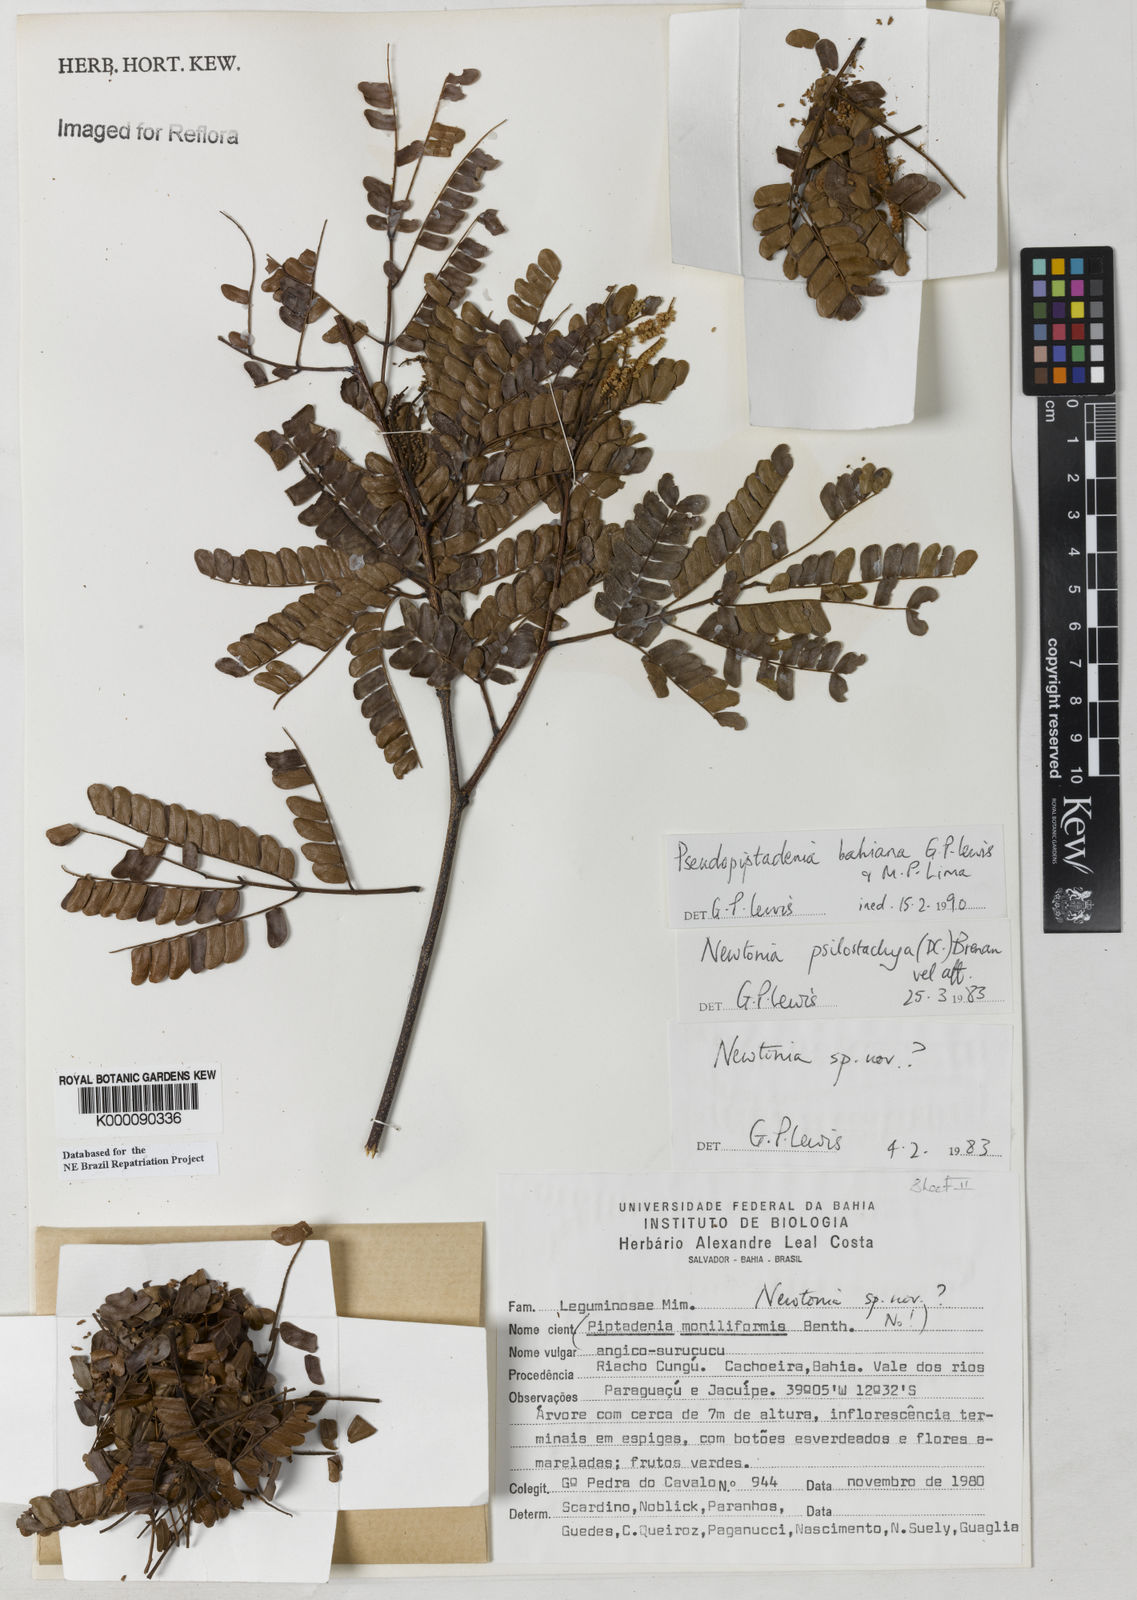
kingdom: Plantae
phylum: Tracheophyta
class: Magnoliopsida
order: Fabales
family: Fabaceae
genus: Pseudopiptadenia
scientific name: Pseudopiptadenia bahiana
